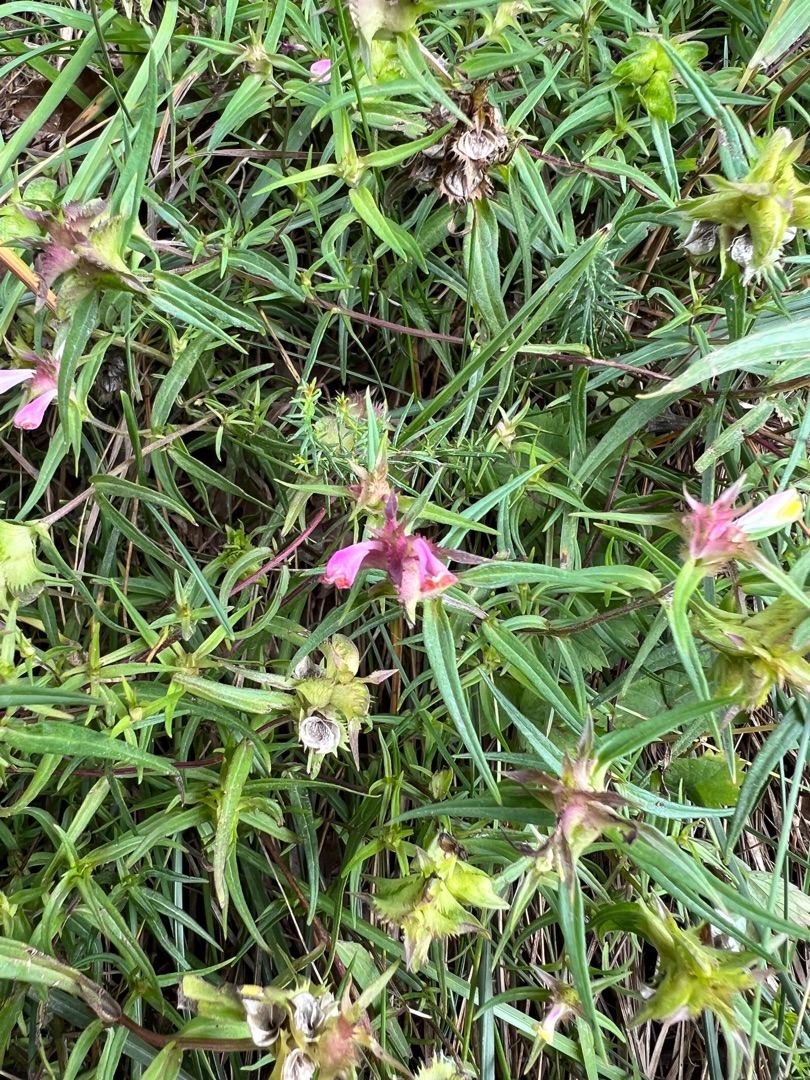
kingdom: Plantae
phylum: Tracheophyta
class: Magnoliopsida
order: Lamiales
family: Orobanchaceae
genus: Melampyrum
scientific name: Melampyrum cristatum
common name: Kantet kohvede
